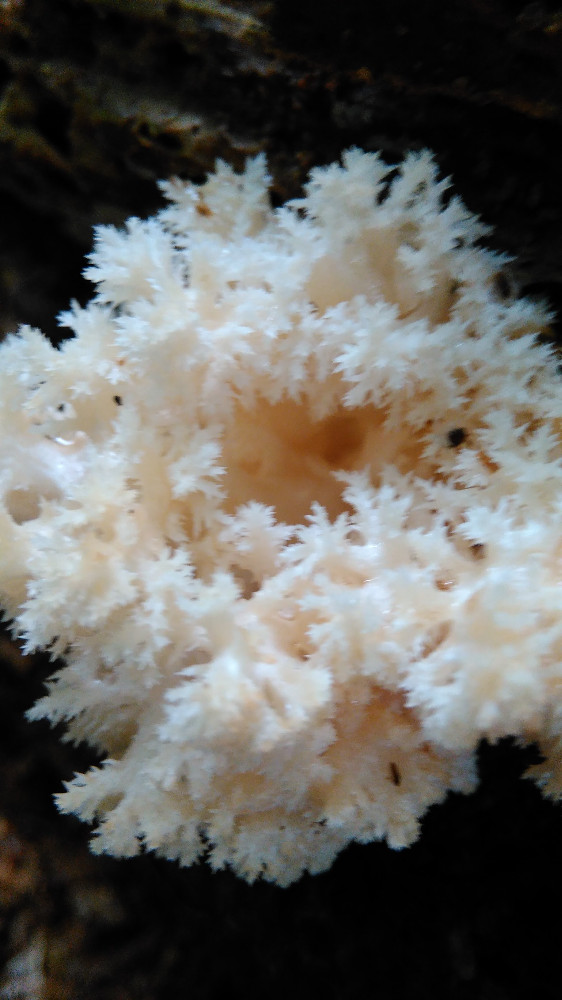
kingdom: Fungi
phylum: Basidiomycota
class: Agaricomycetes
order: Russulales
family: Hericiaceae
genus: Hericium
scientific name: Hericium coralloides
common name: koralpigsvamp
